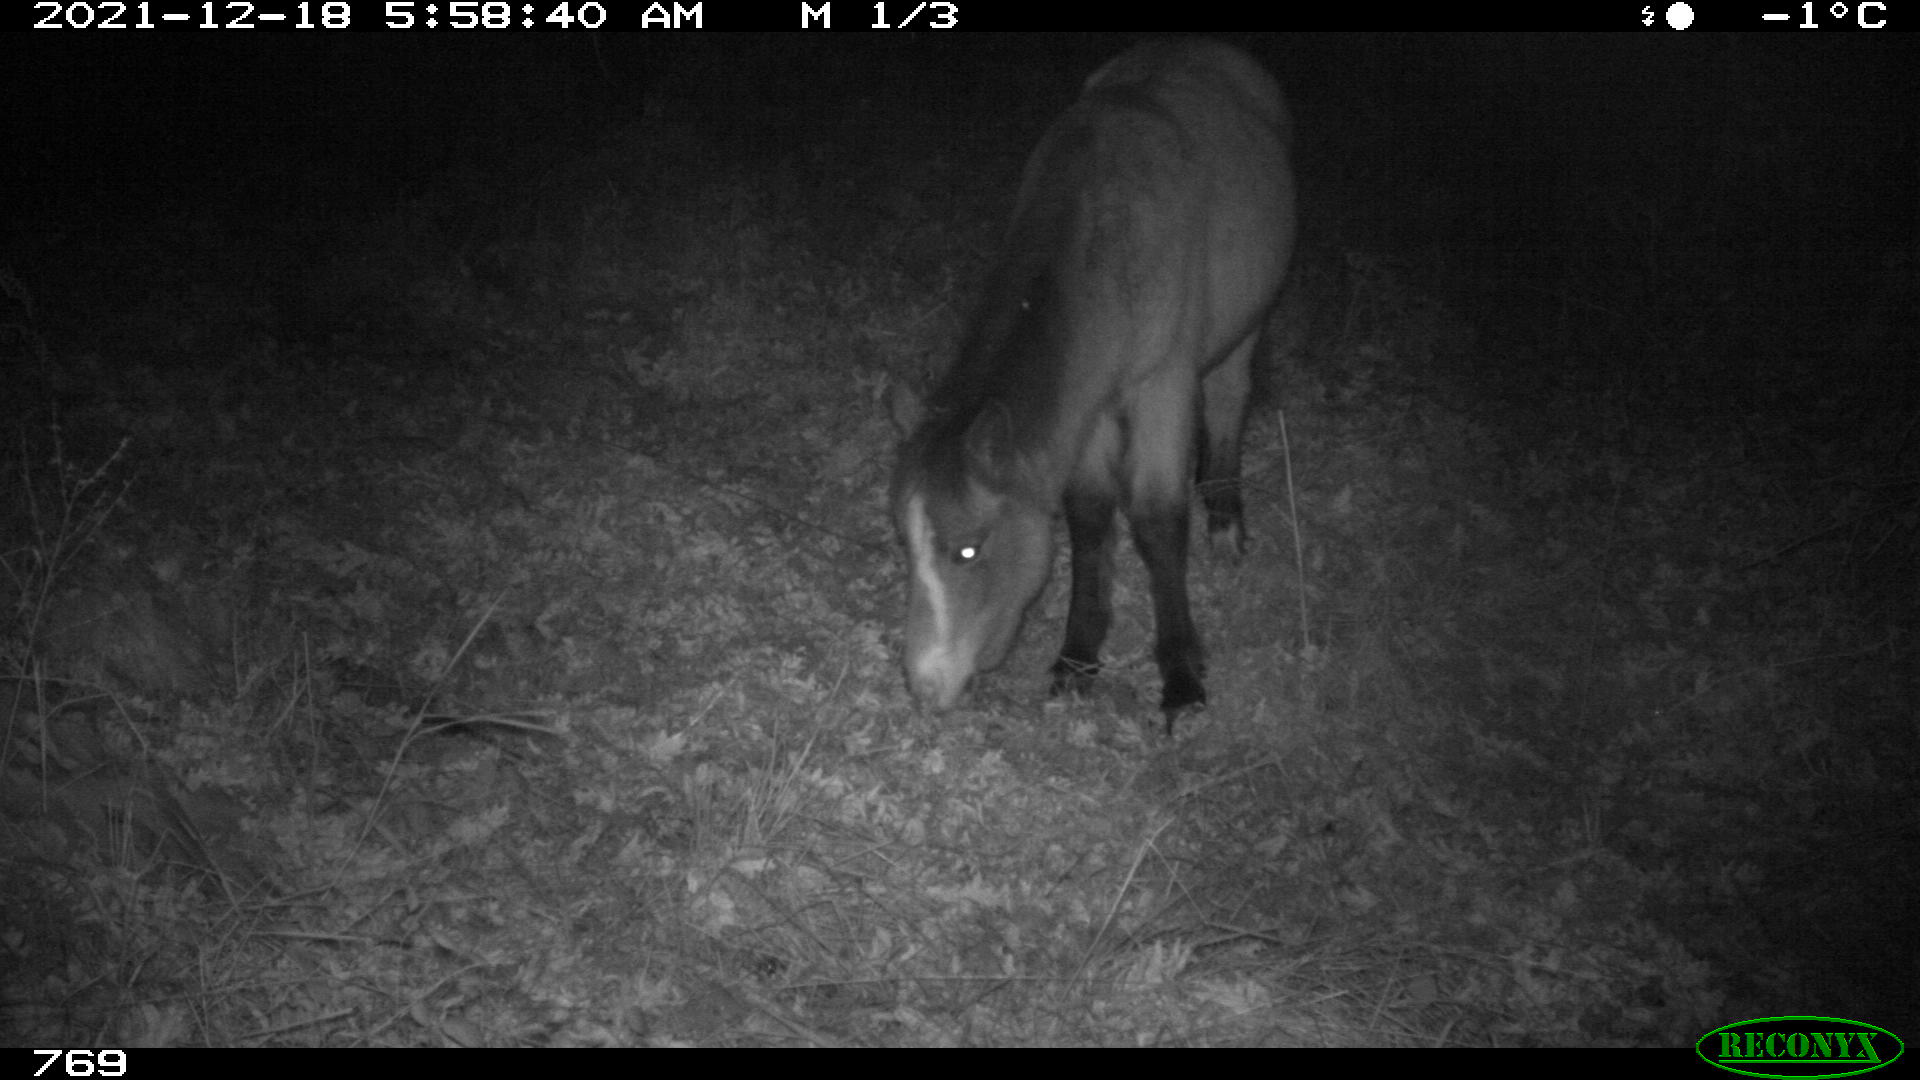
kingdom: Animalia
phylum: Chordata
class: Mammalia
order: Perissodactyla
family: Equidae
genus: Equus
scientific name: Equus caballus
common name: Horse
